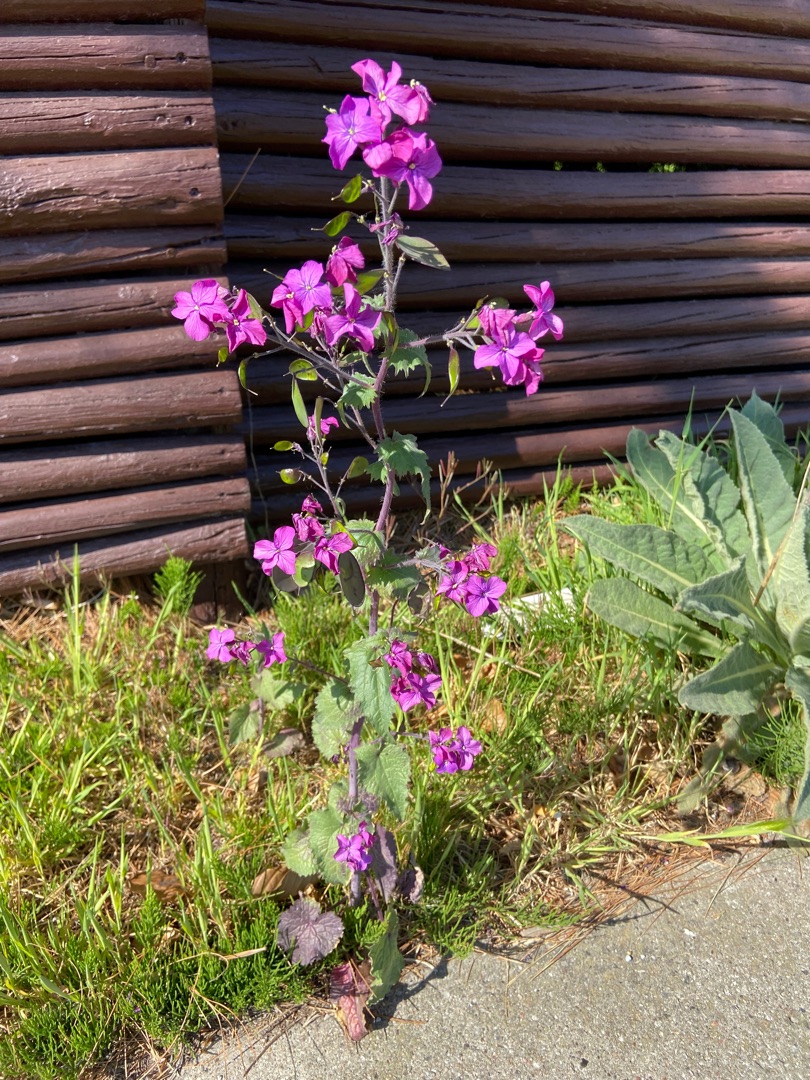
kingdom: Plantae
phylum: Tracheophyta
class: Magnoliopsida
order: Brassicales
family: Brassicaceae
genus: Lunaria
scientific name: Lunaria annua
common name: Judaspenge
